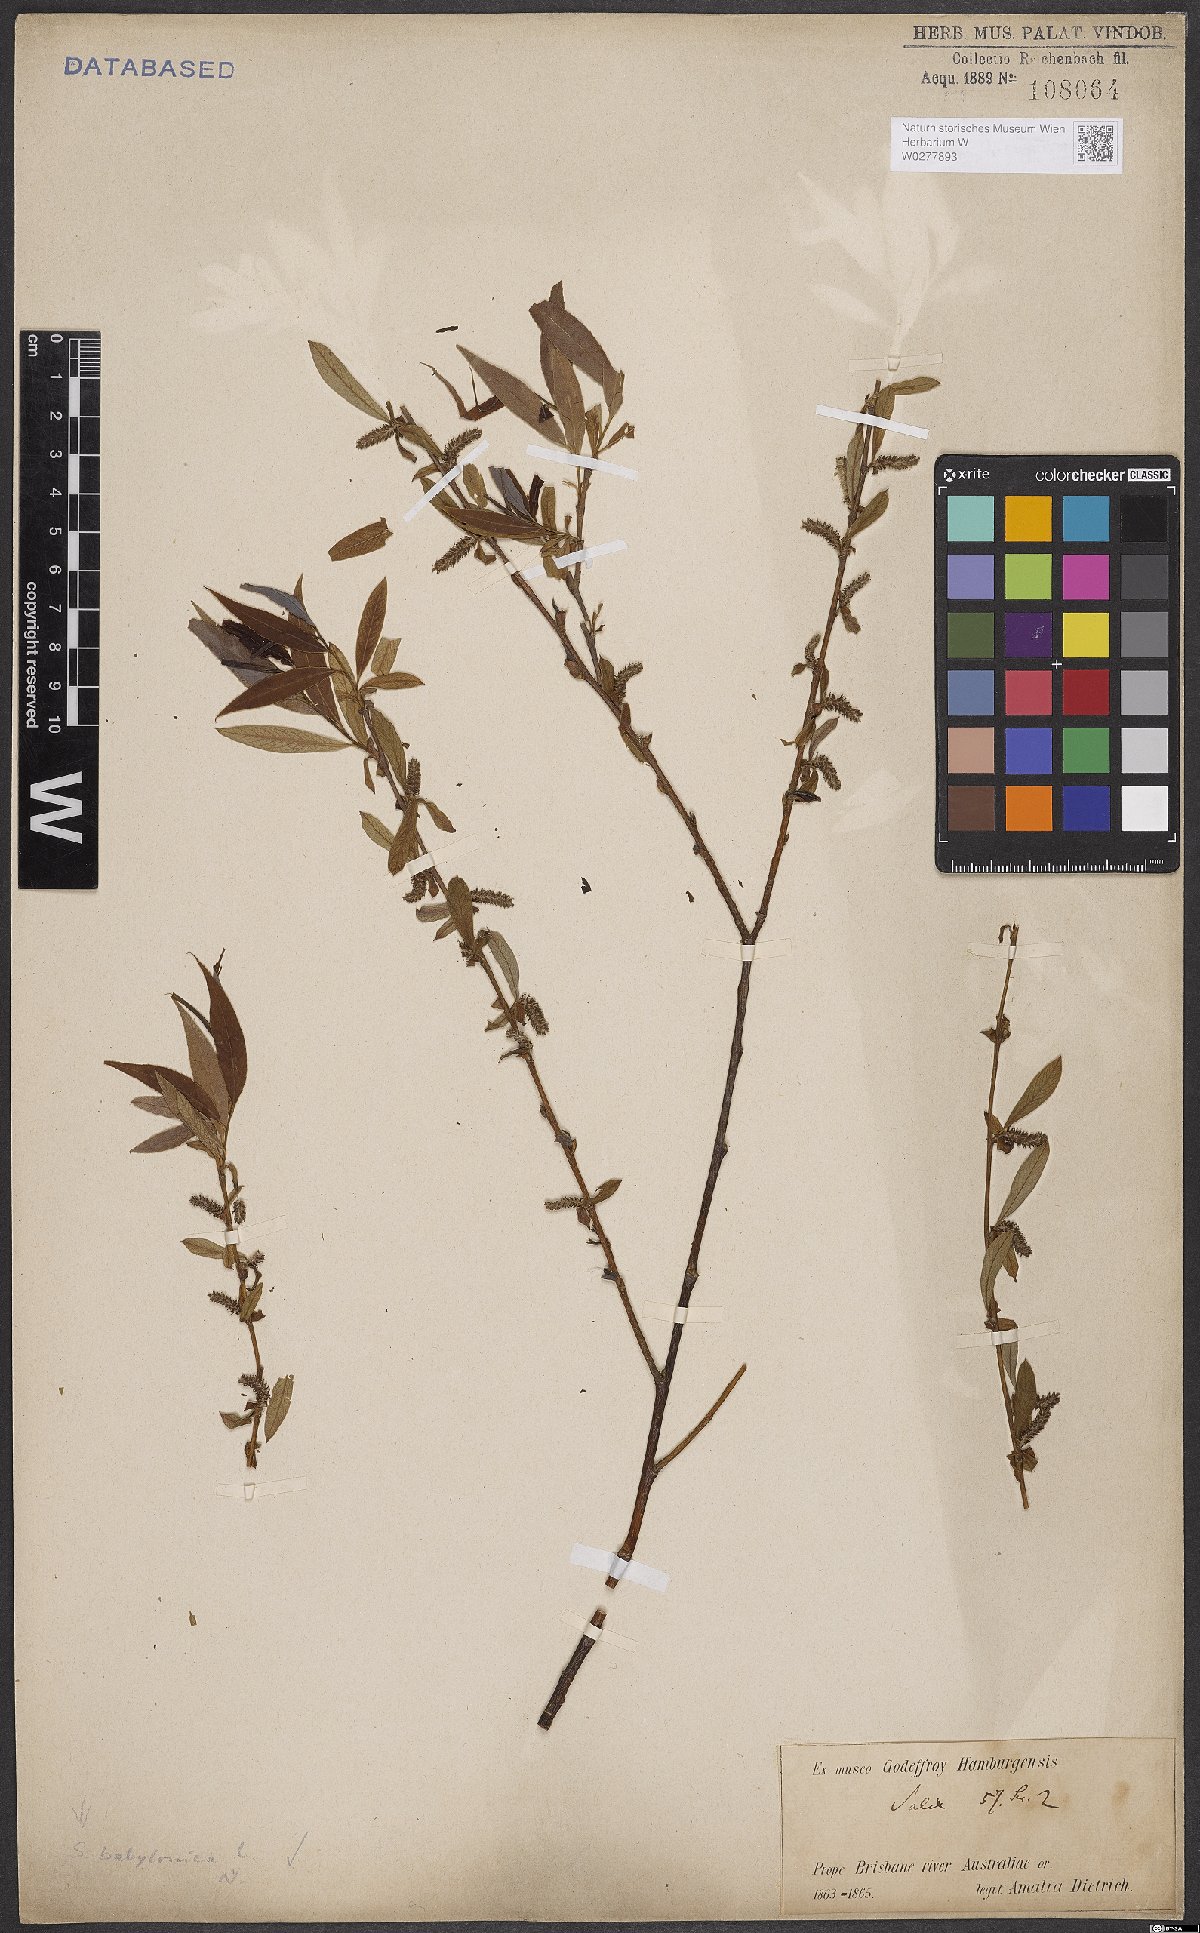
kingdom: Plantae
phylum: Tracheophyta
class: Magnoliopsida
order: Malpighiales
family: Salicaceae
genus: Salix
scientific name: Salix babylonica
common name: Weeping willow
